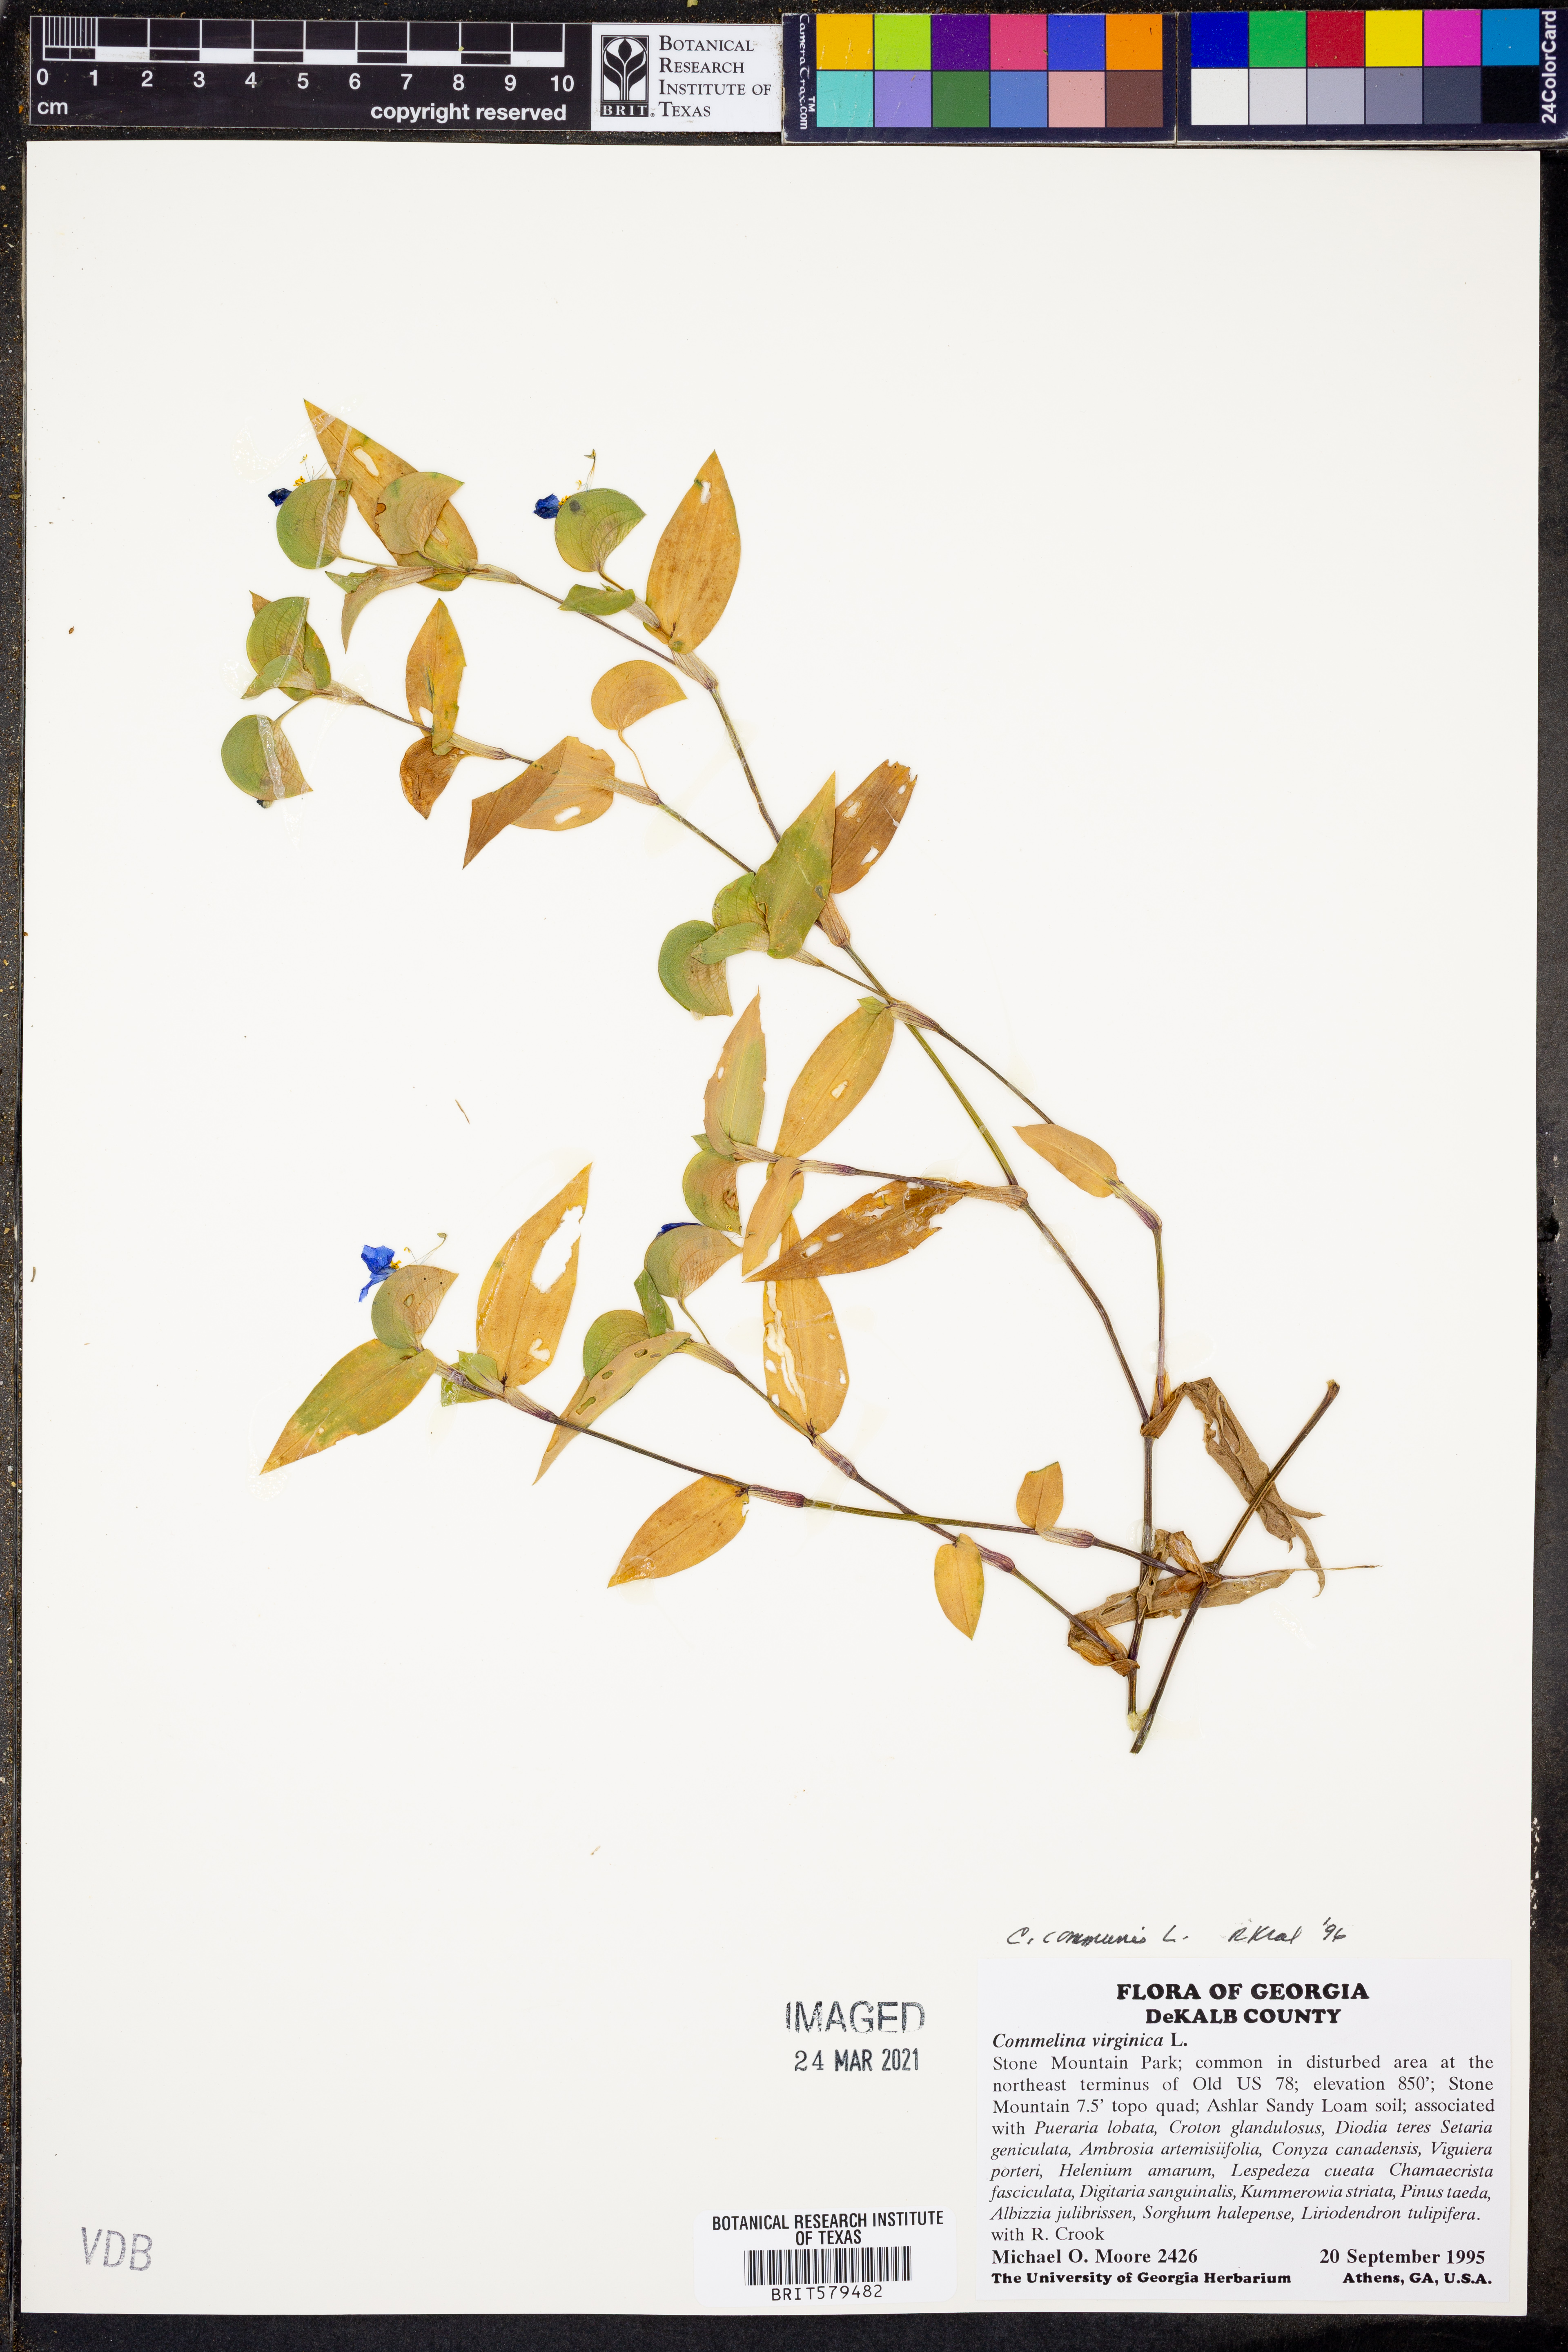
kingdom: Plantae
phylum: Tracheophyta
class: Liliopsida
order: Commelinales
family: Commelinaceae
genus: Commelina
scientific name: Commelina communis
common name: Asiatic dayflower
